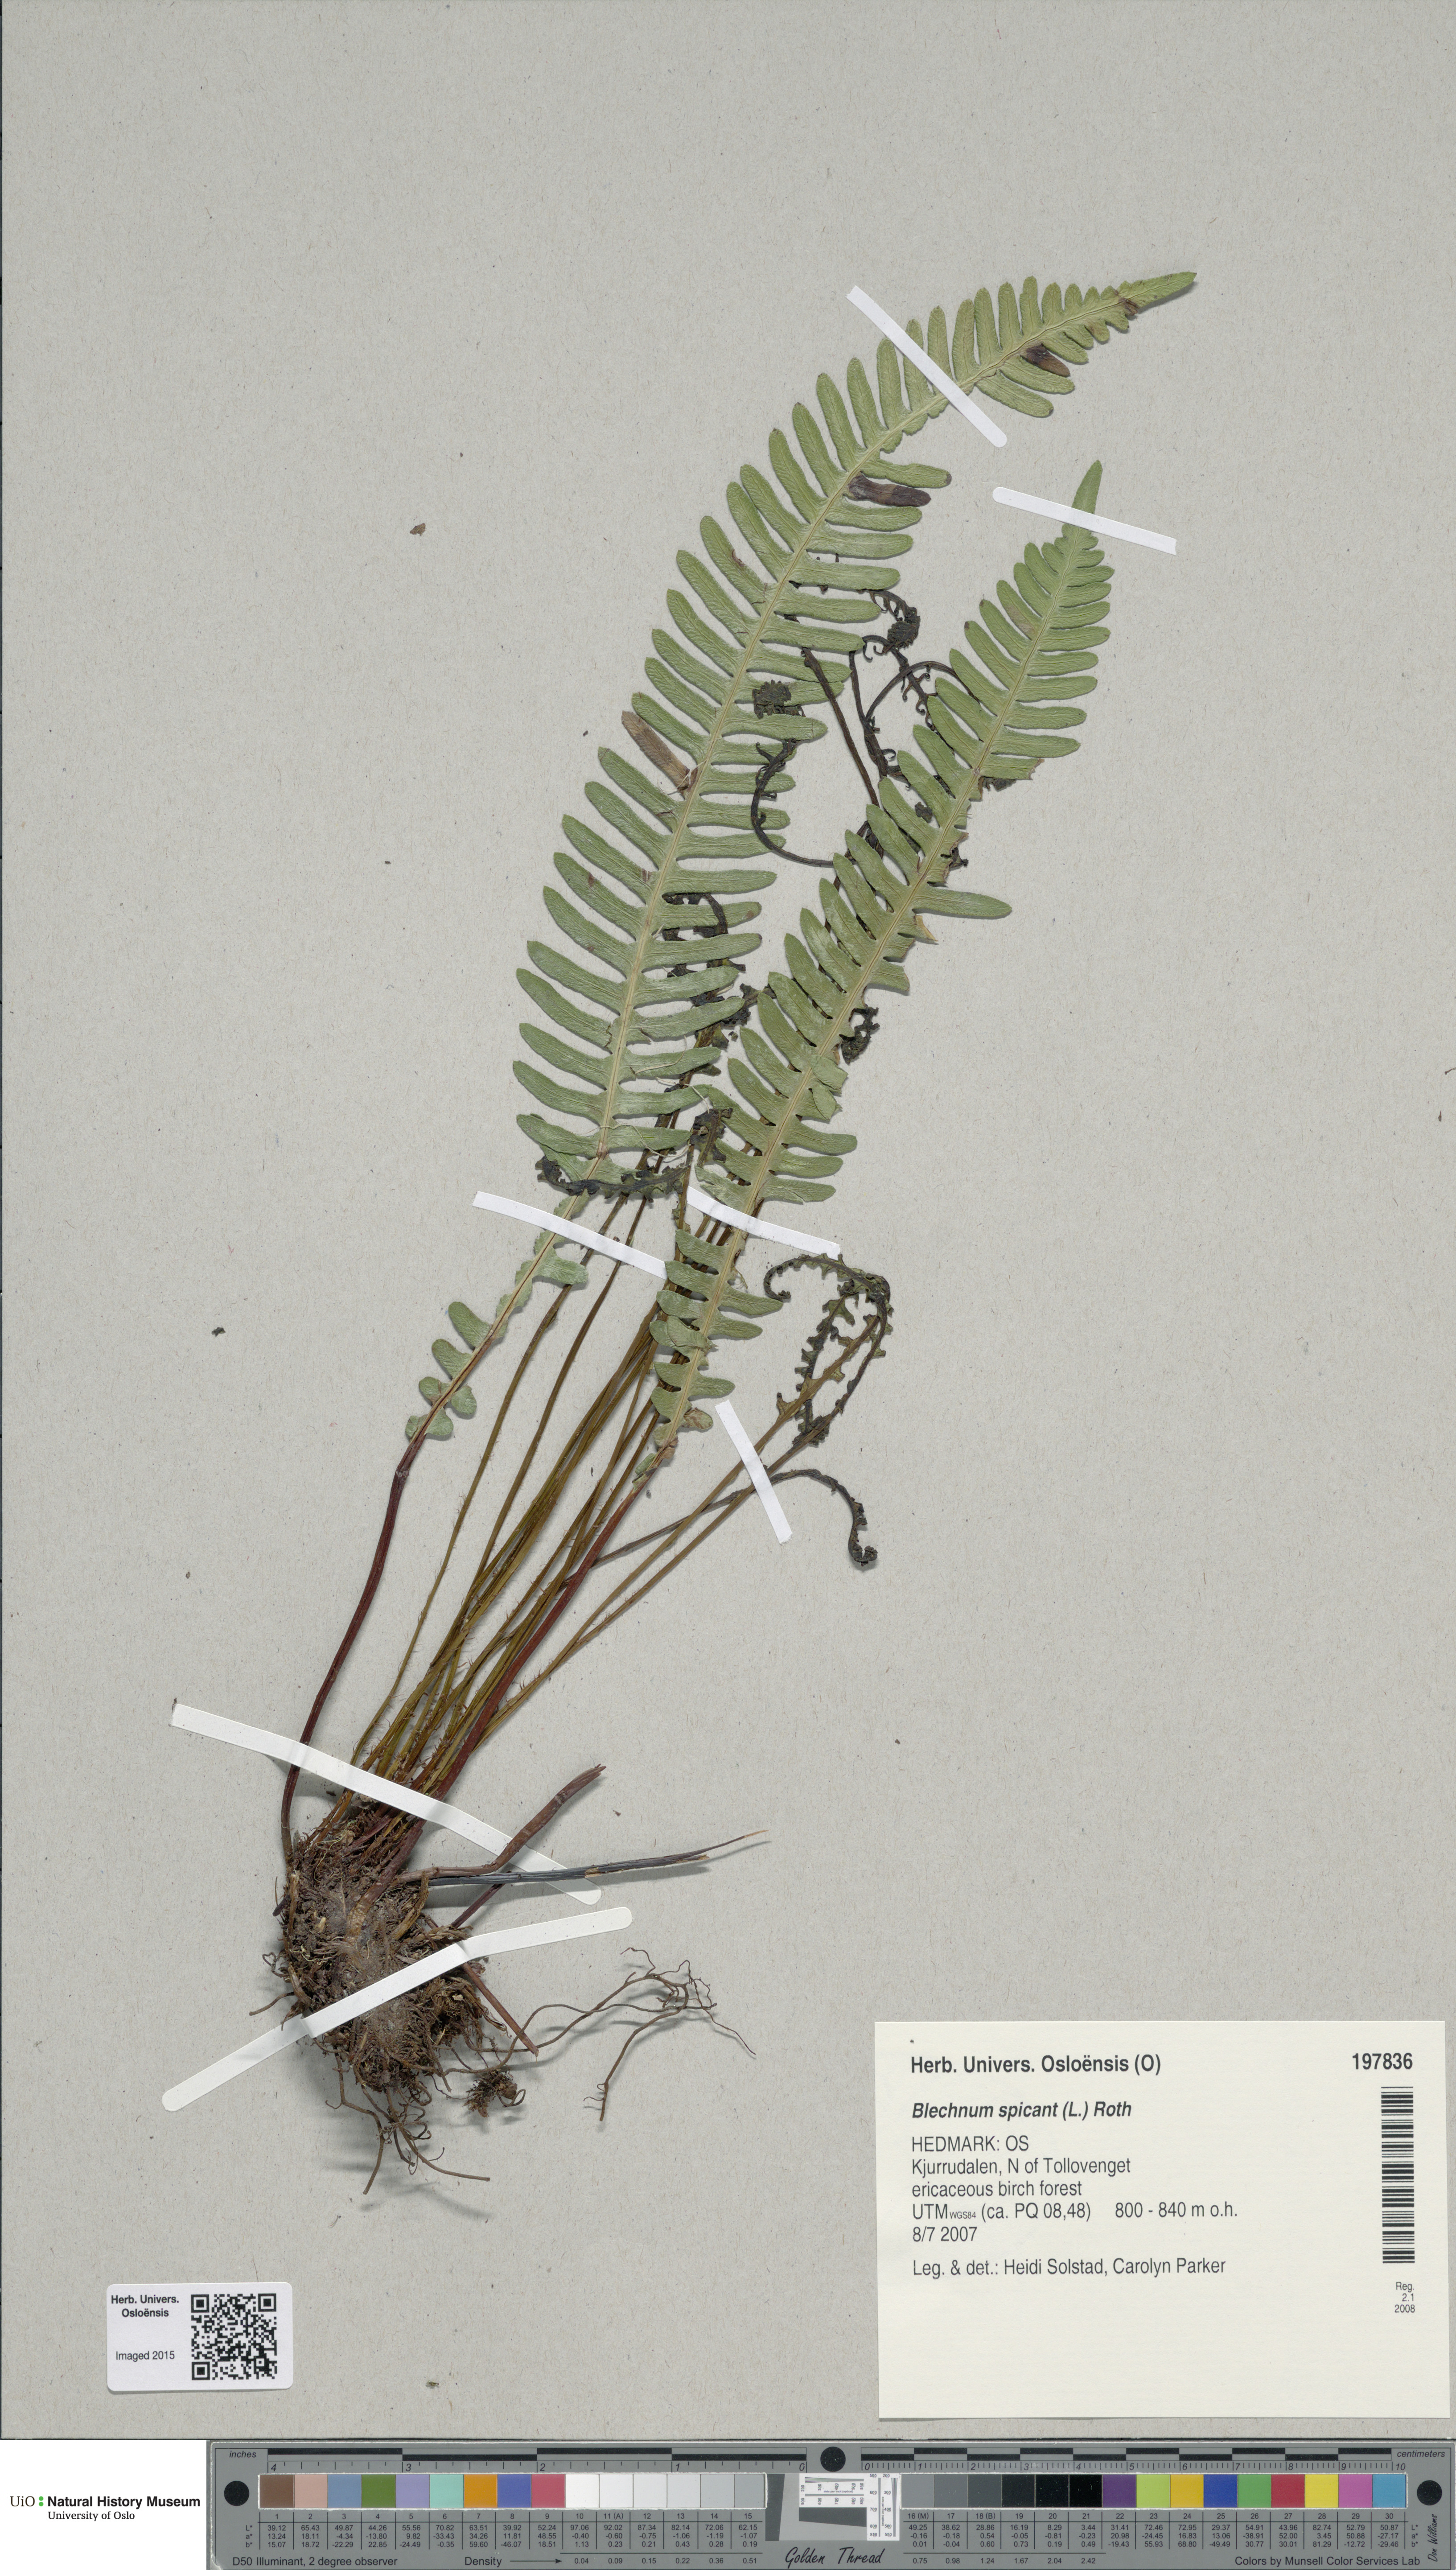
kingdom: Plantae
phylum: Tracheophyta
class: Polypodiopsida
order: Polypodiales
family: Blechnaceae
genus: Struthiopteris
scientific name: Struthiopteris spicant
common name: Deer fern
